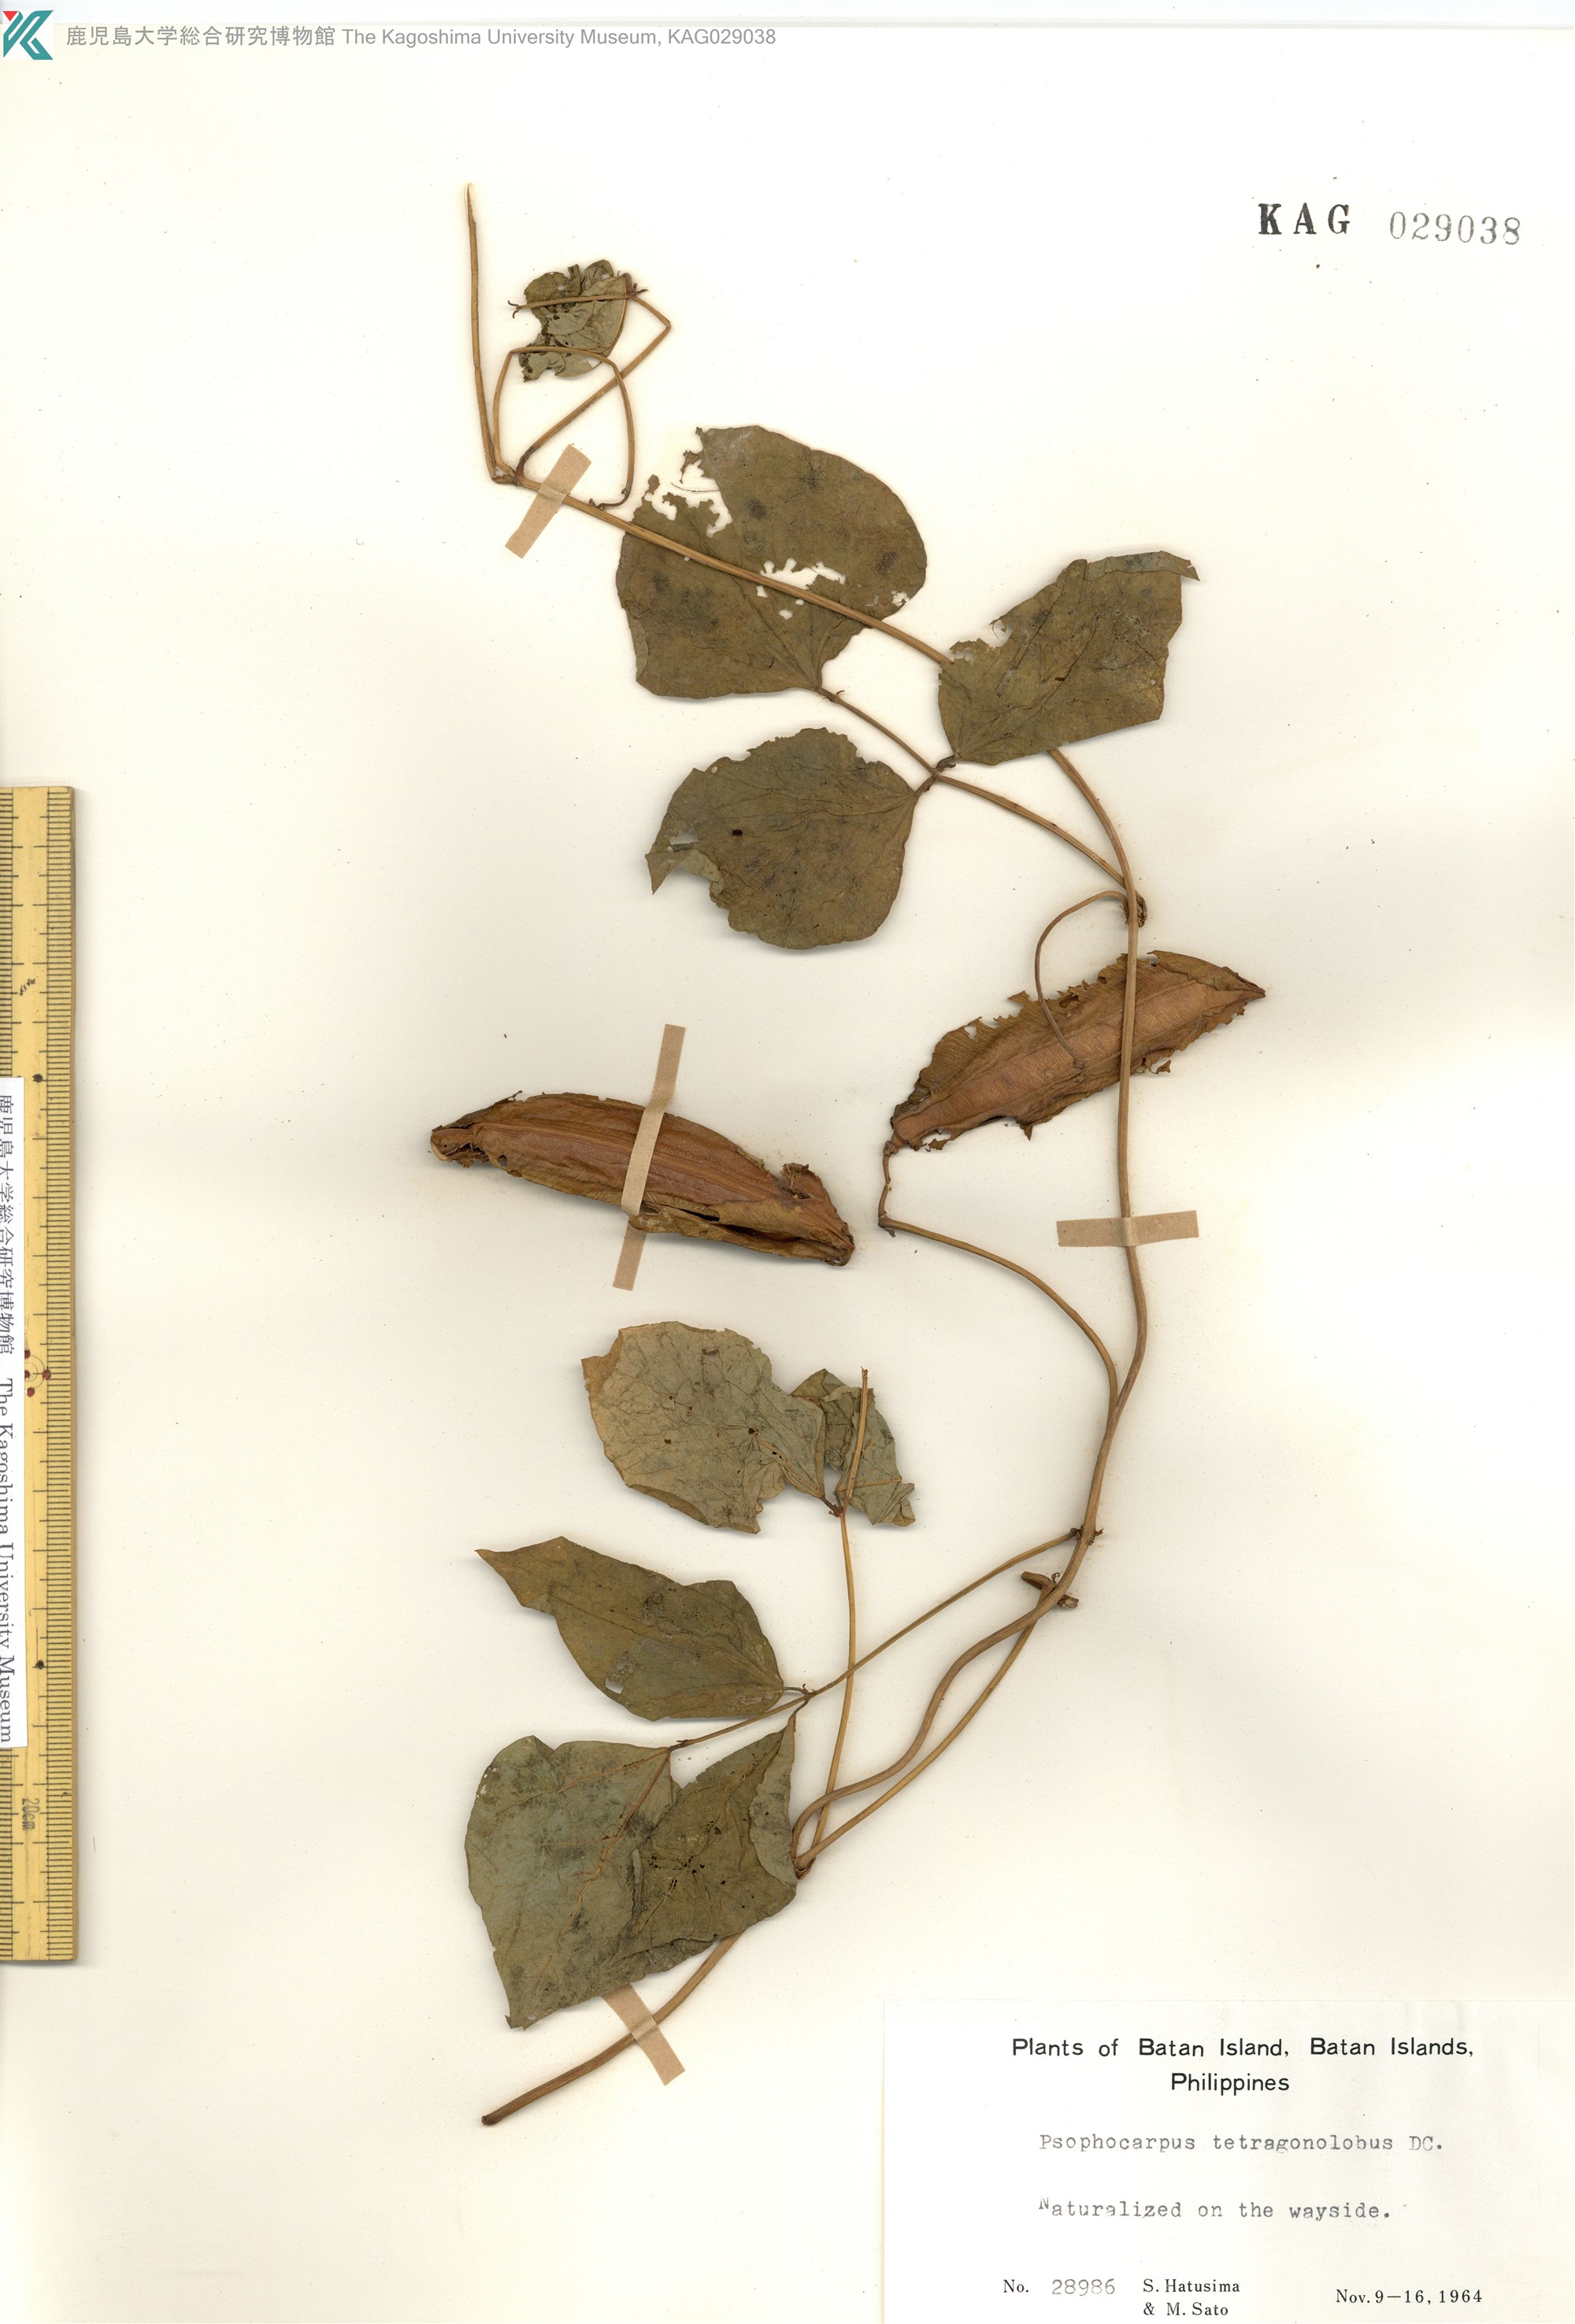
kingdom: Plantae
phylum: Tracheophyta
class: Magnoliopsida
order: Fabales
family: Fabaceae
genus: Psophocarpus
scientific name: Psophocarpus tetragonolobus
